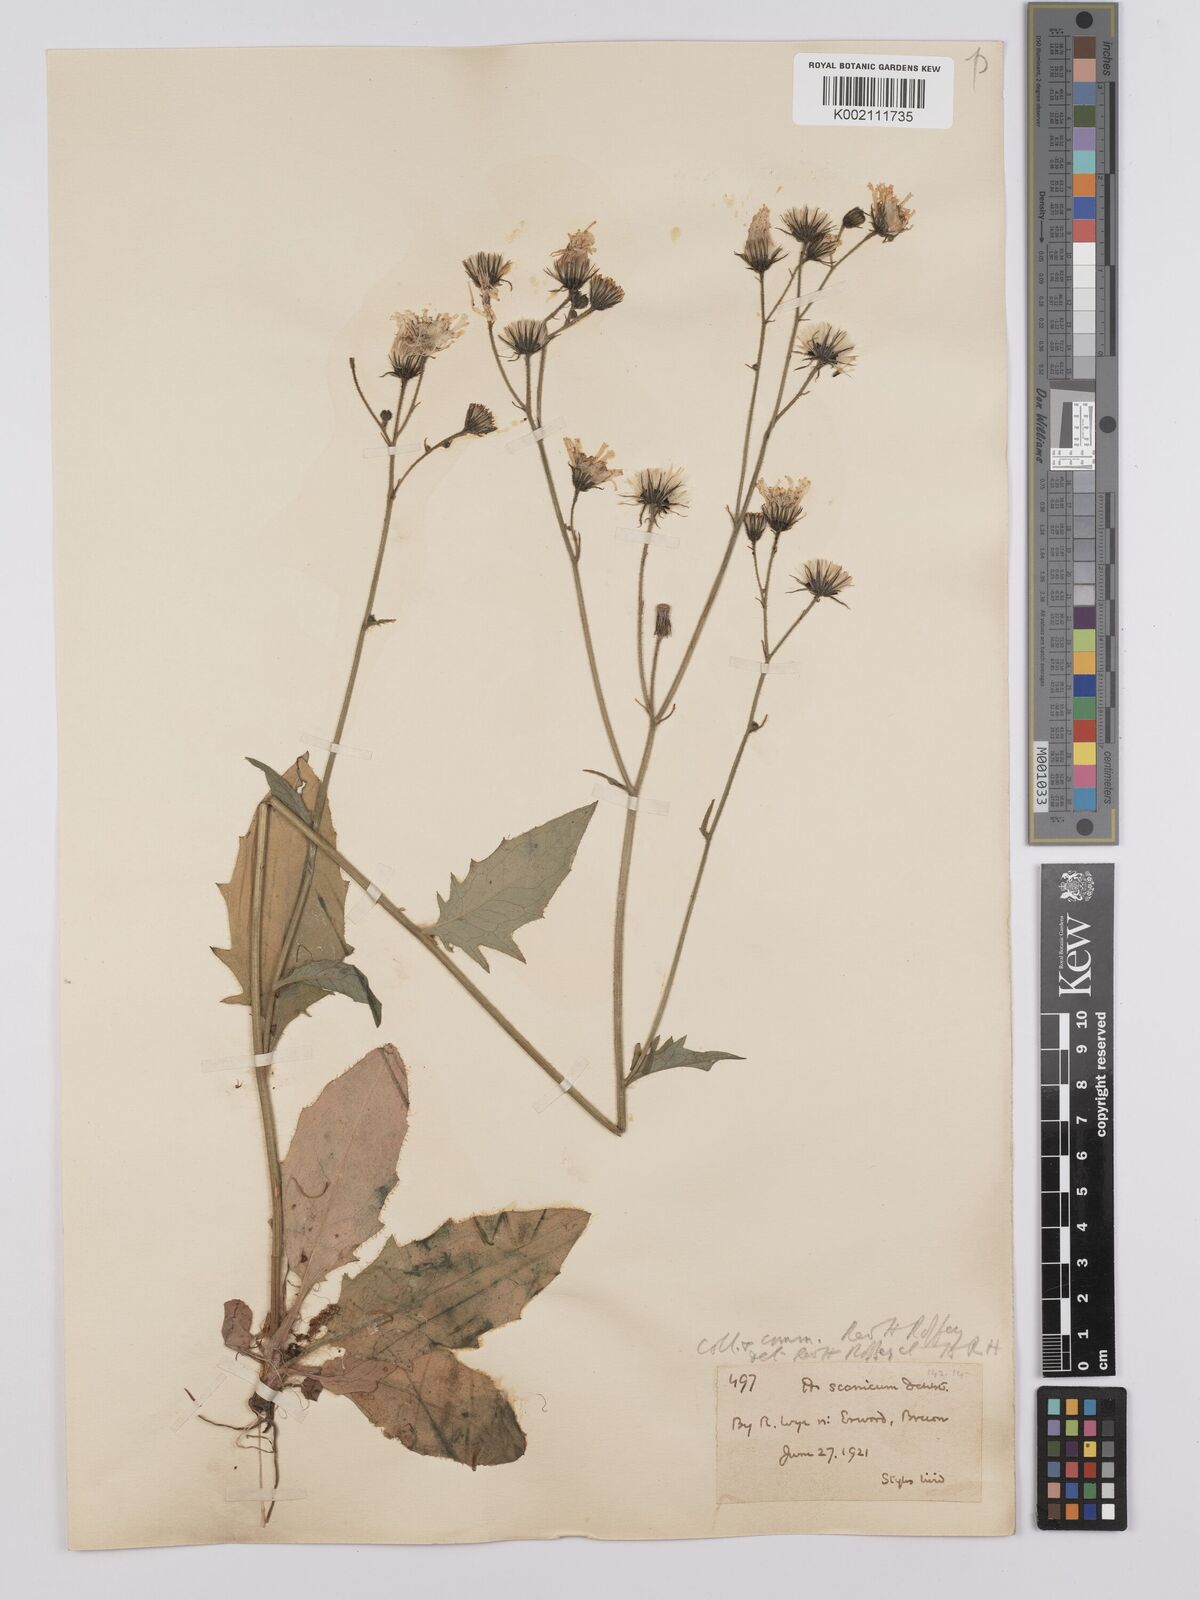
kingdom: Plantae
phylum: Tracheophyta
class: Magnoliopsida
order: Asterales
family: Asteraceae
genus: Hieracium
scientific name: Hieracium anglorum
